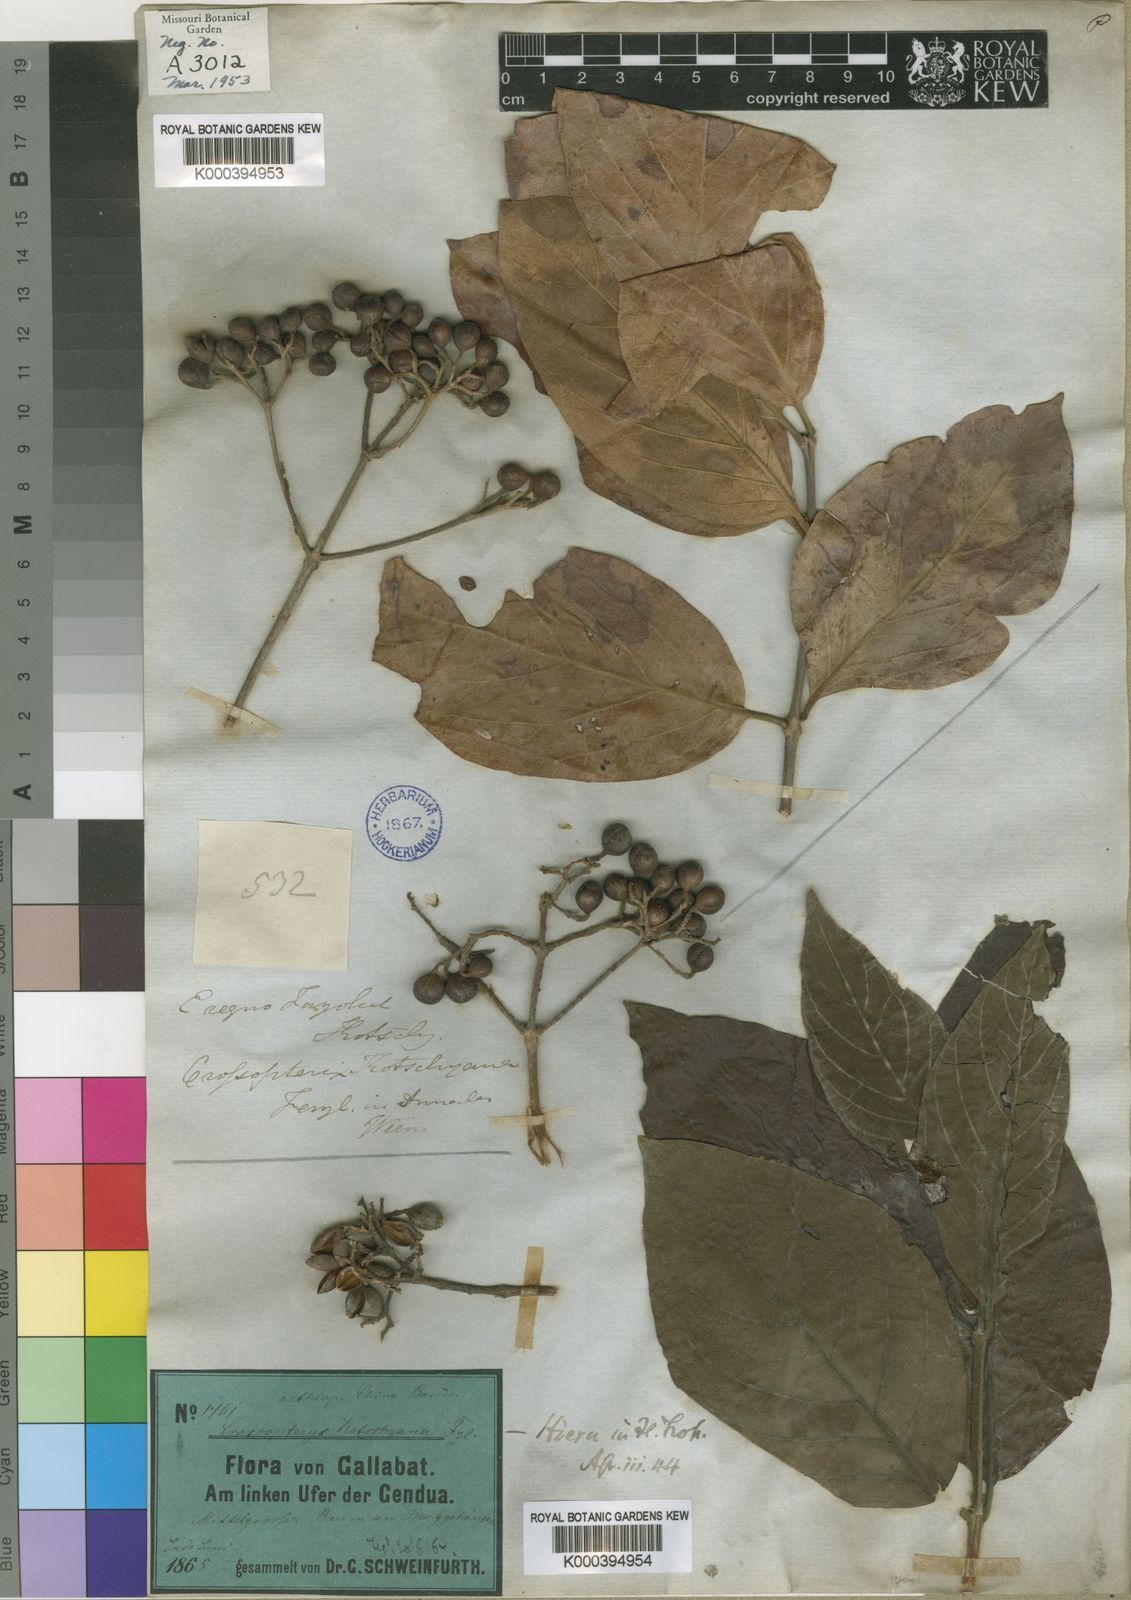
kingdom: Plantae
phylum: Tracheophyta
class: Magnoliopsida
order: Gentianales
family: Rubiaceae
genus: Crossopteryx
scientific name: Crossopteryx febrifuga
